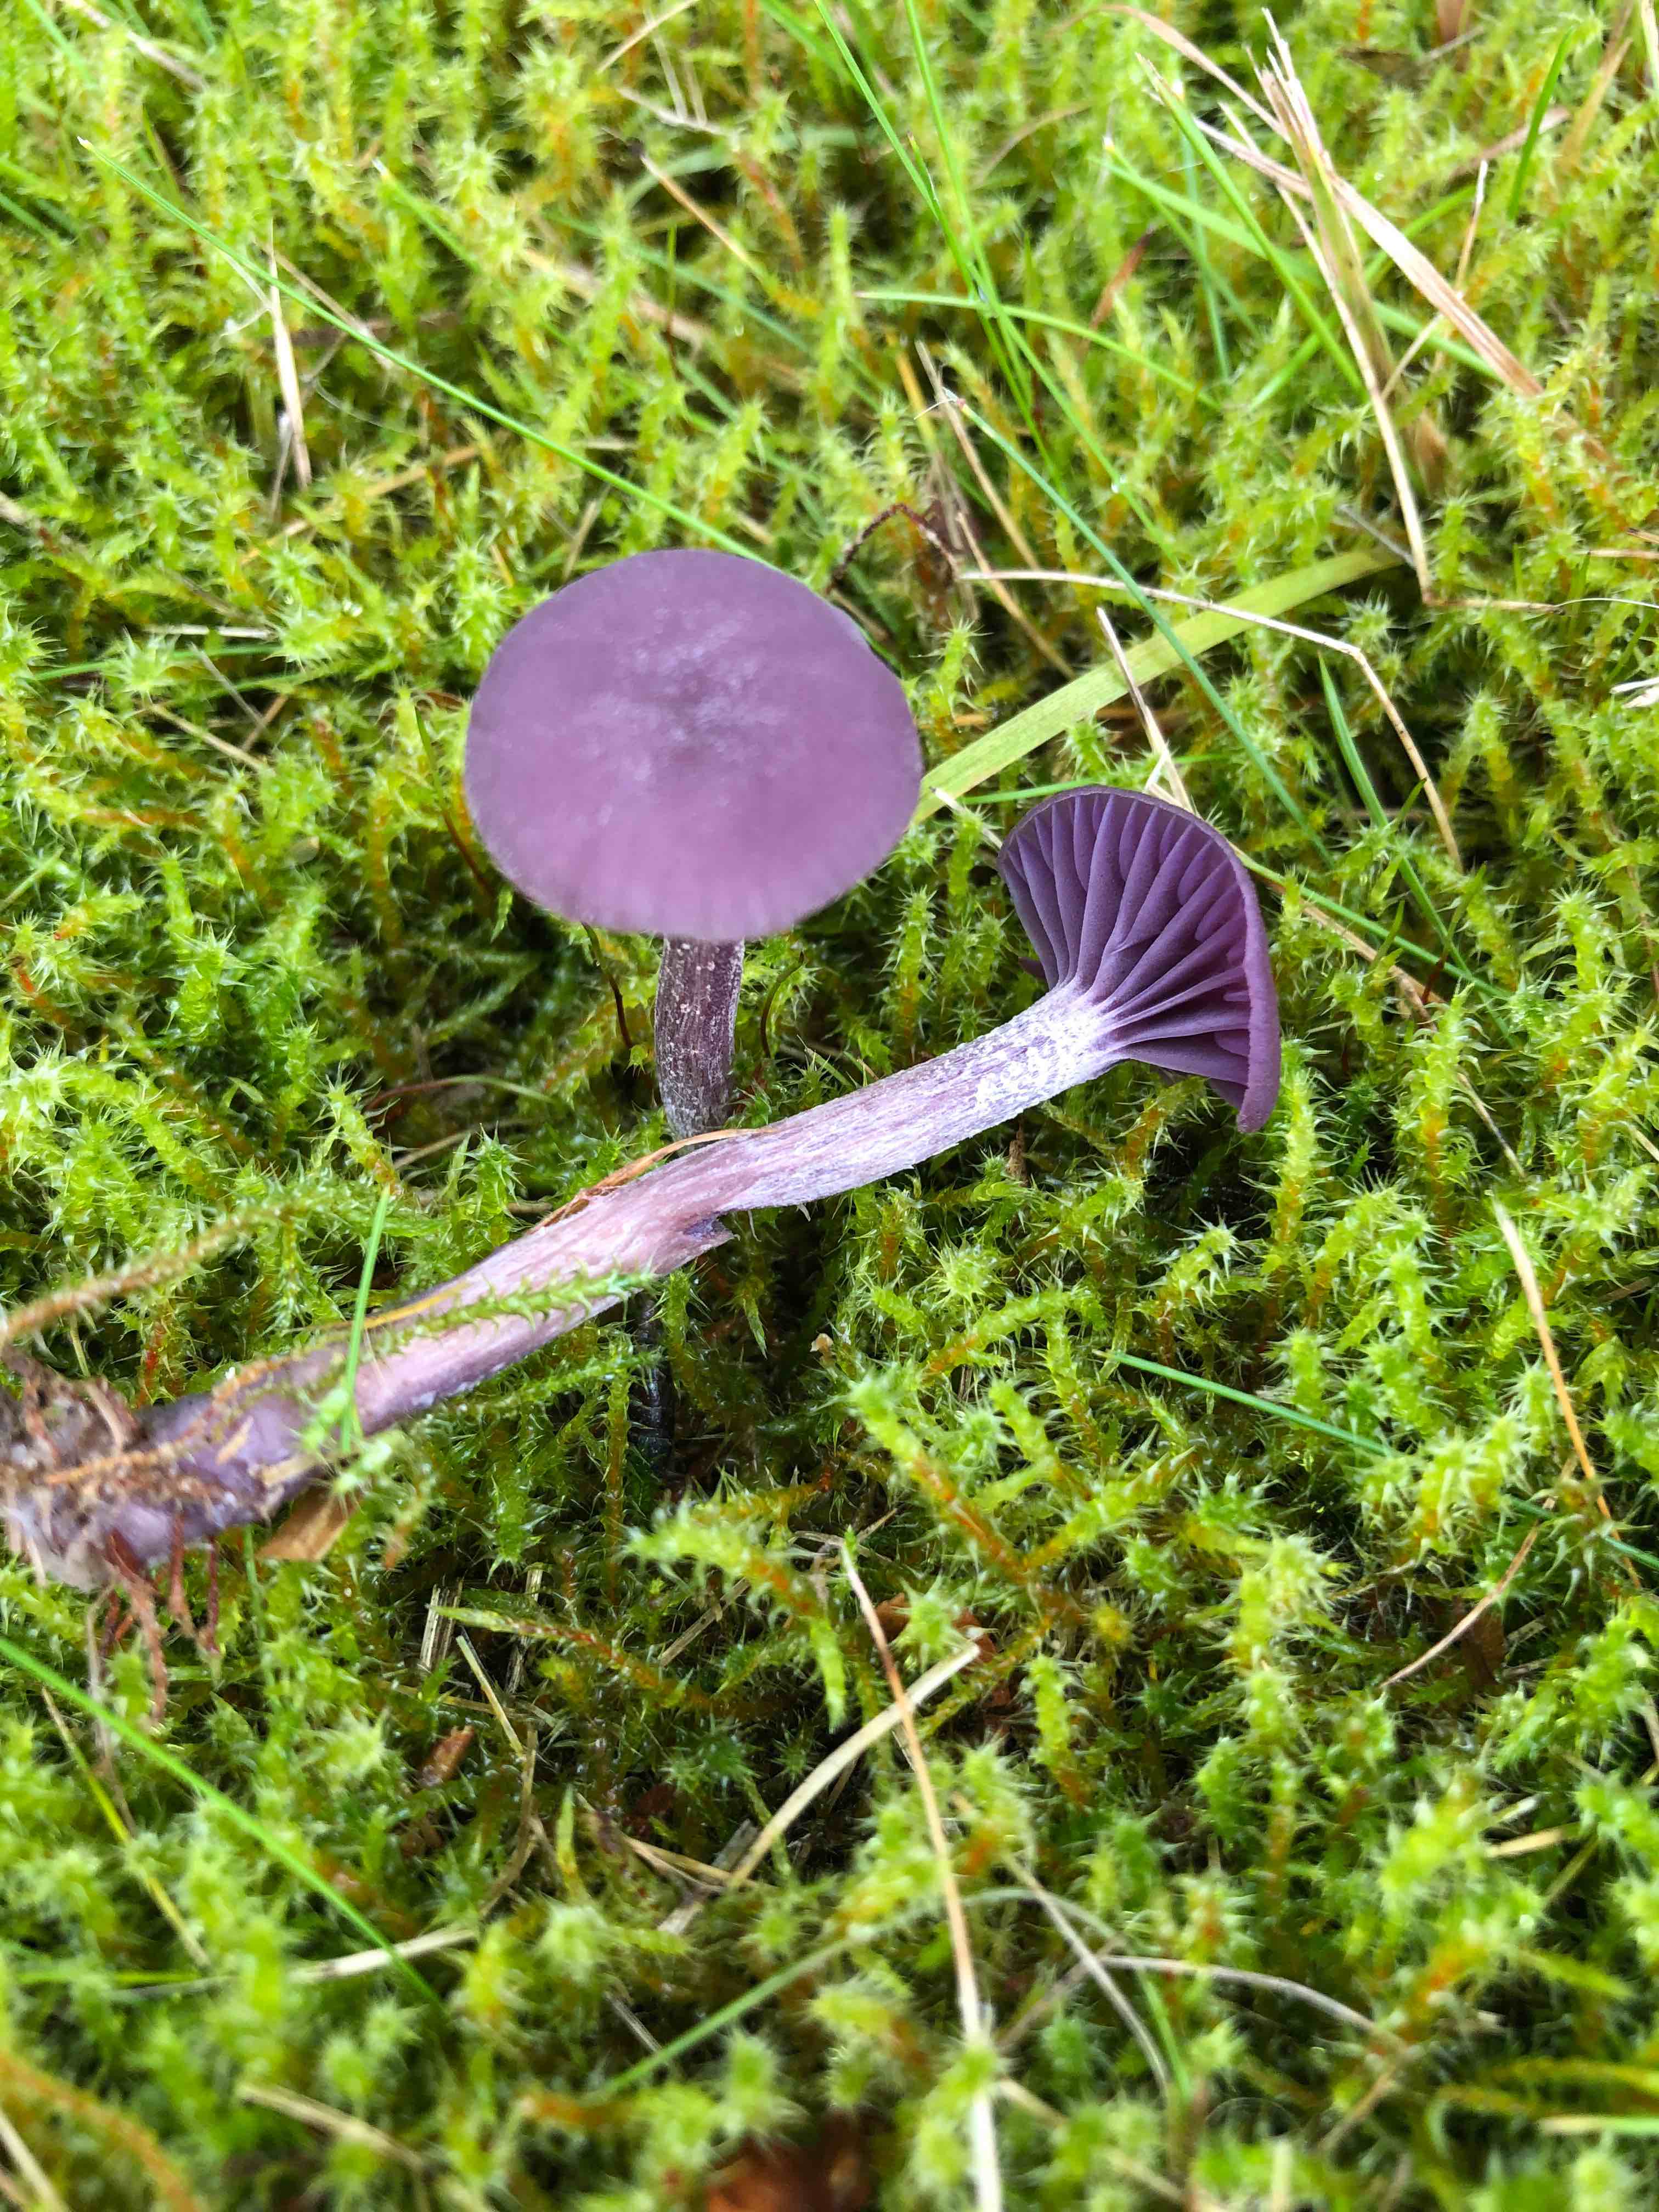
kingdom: Fungi
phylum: Basidiomycota
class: Agaricomycetes
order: Agaricales
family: Hydnangiaceae
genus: Laccaria
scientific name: Laccaria amethystina
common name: violet ametysthat
